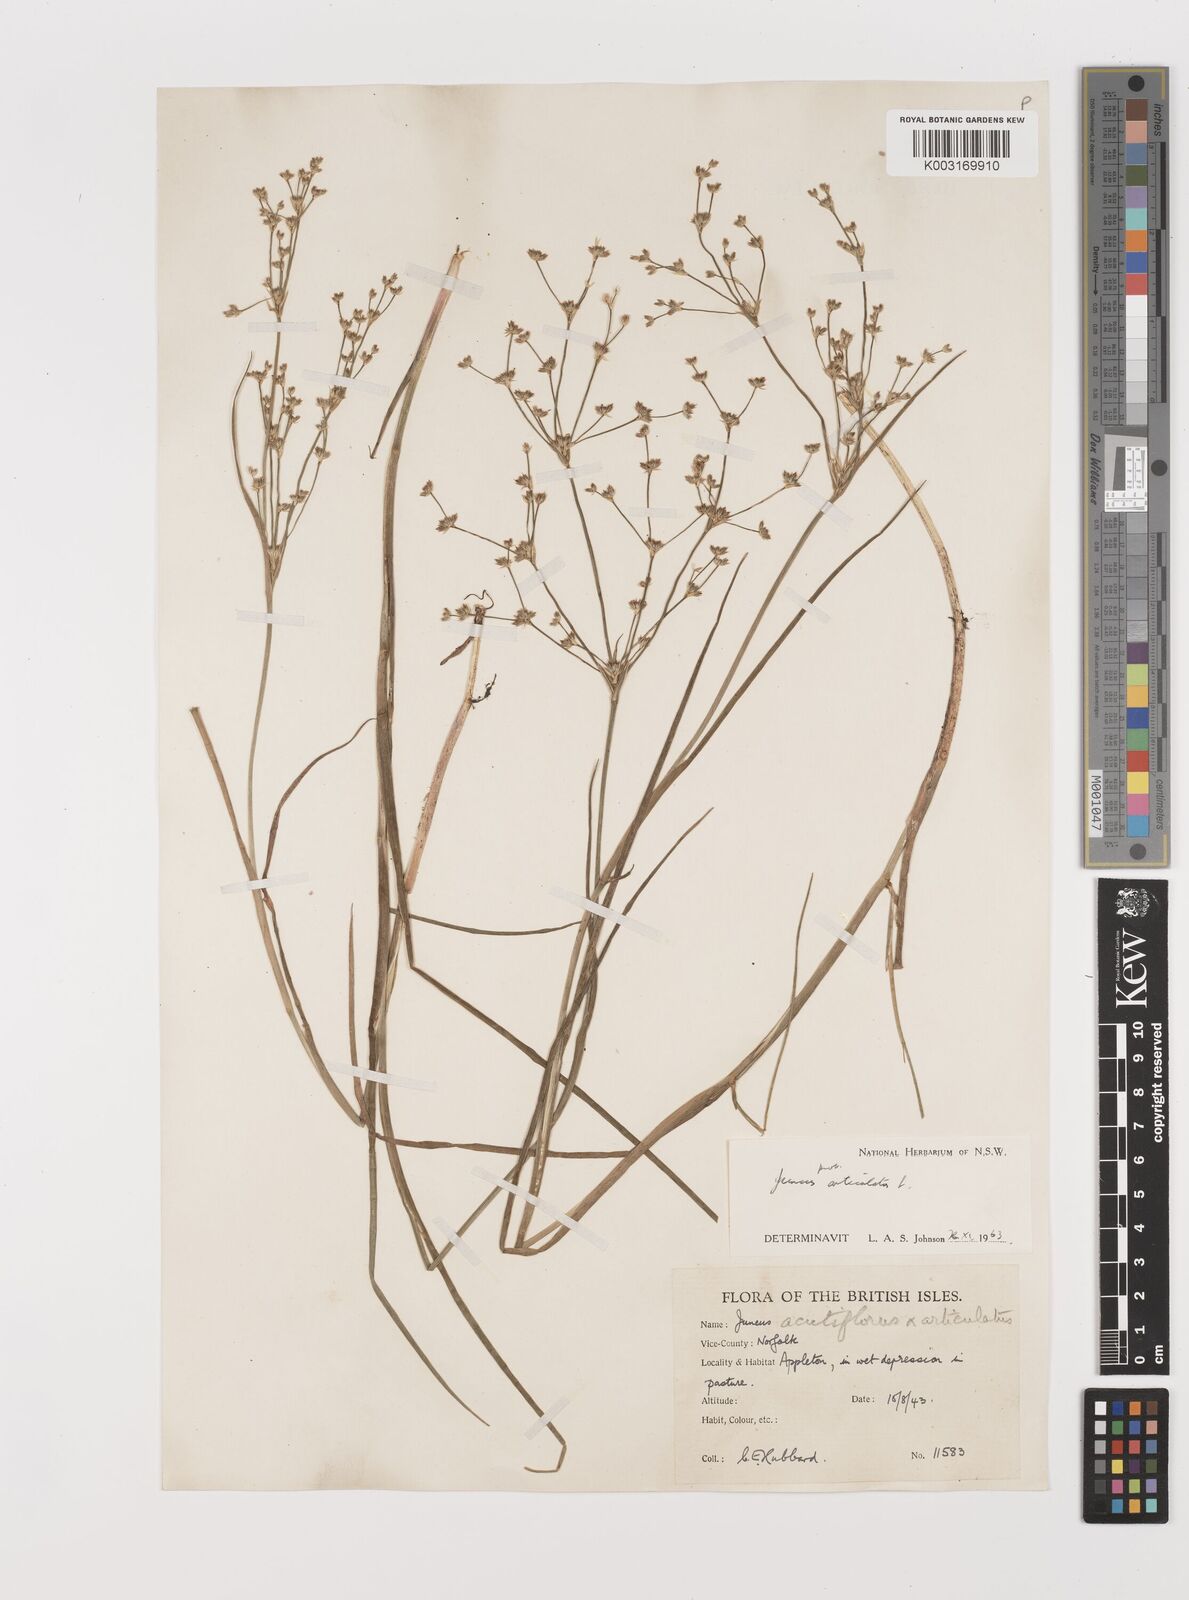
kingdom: Plantae
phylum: Tracheophyta
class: Liliopsida
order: Poales
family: Juncaceae
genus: Juncus
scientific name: Juncus articulatus
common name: Jointed rush
